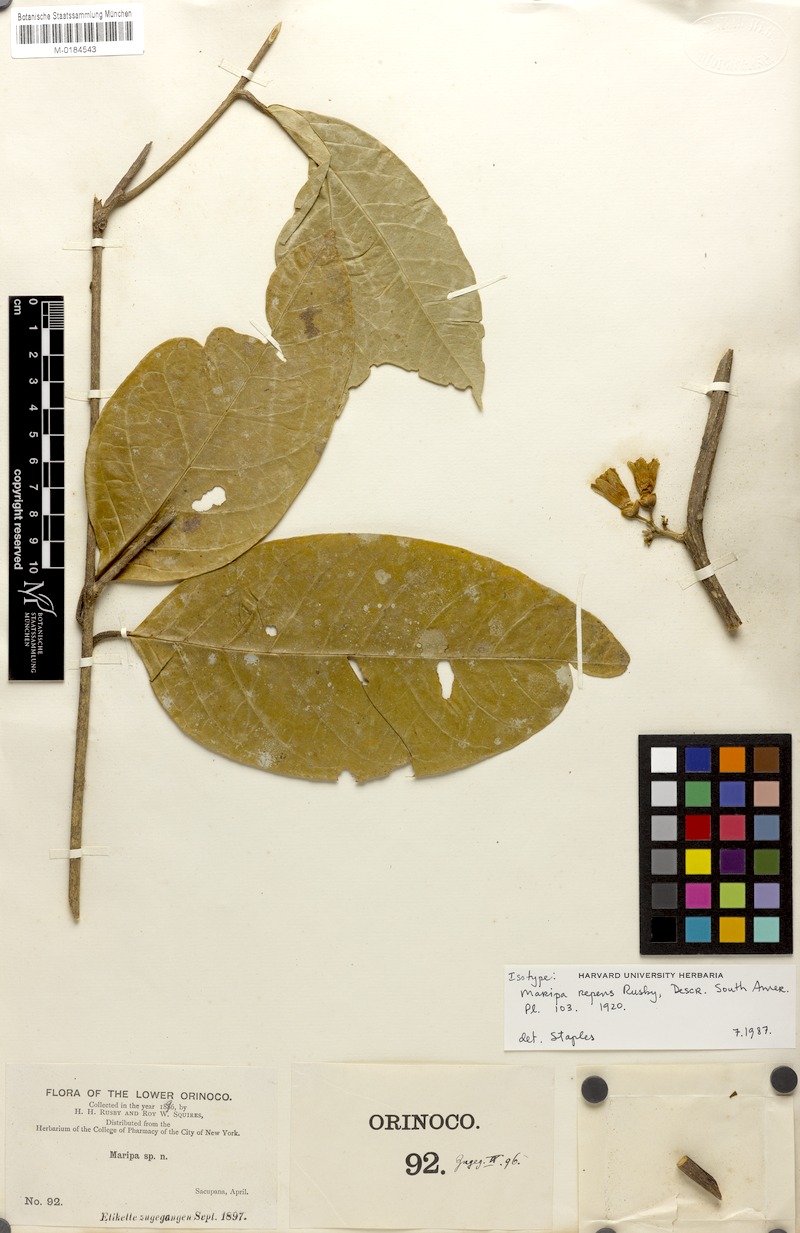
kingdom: Plantae
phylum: Tracheophyta
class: Magnoliopsida
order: Solanales
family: Convolvulaceae
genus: Maripa
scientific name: Maripa repens
